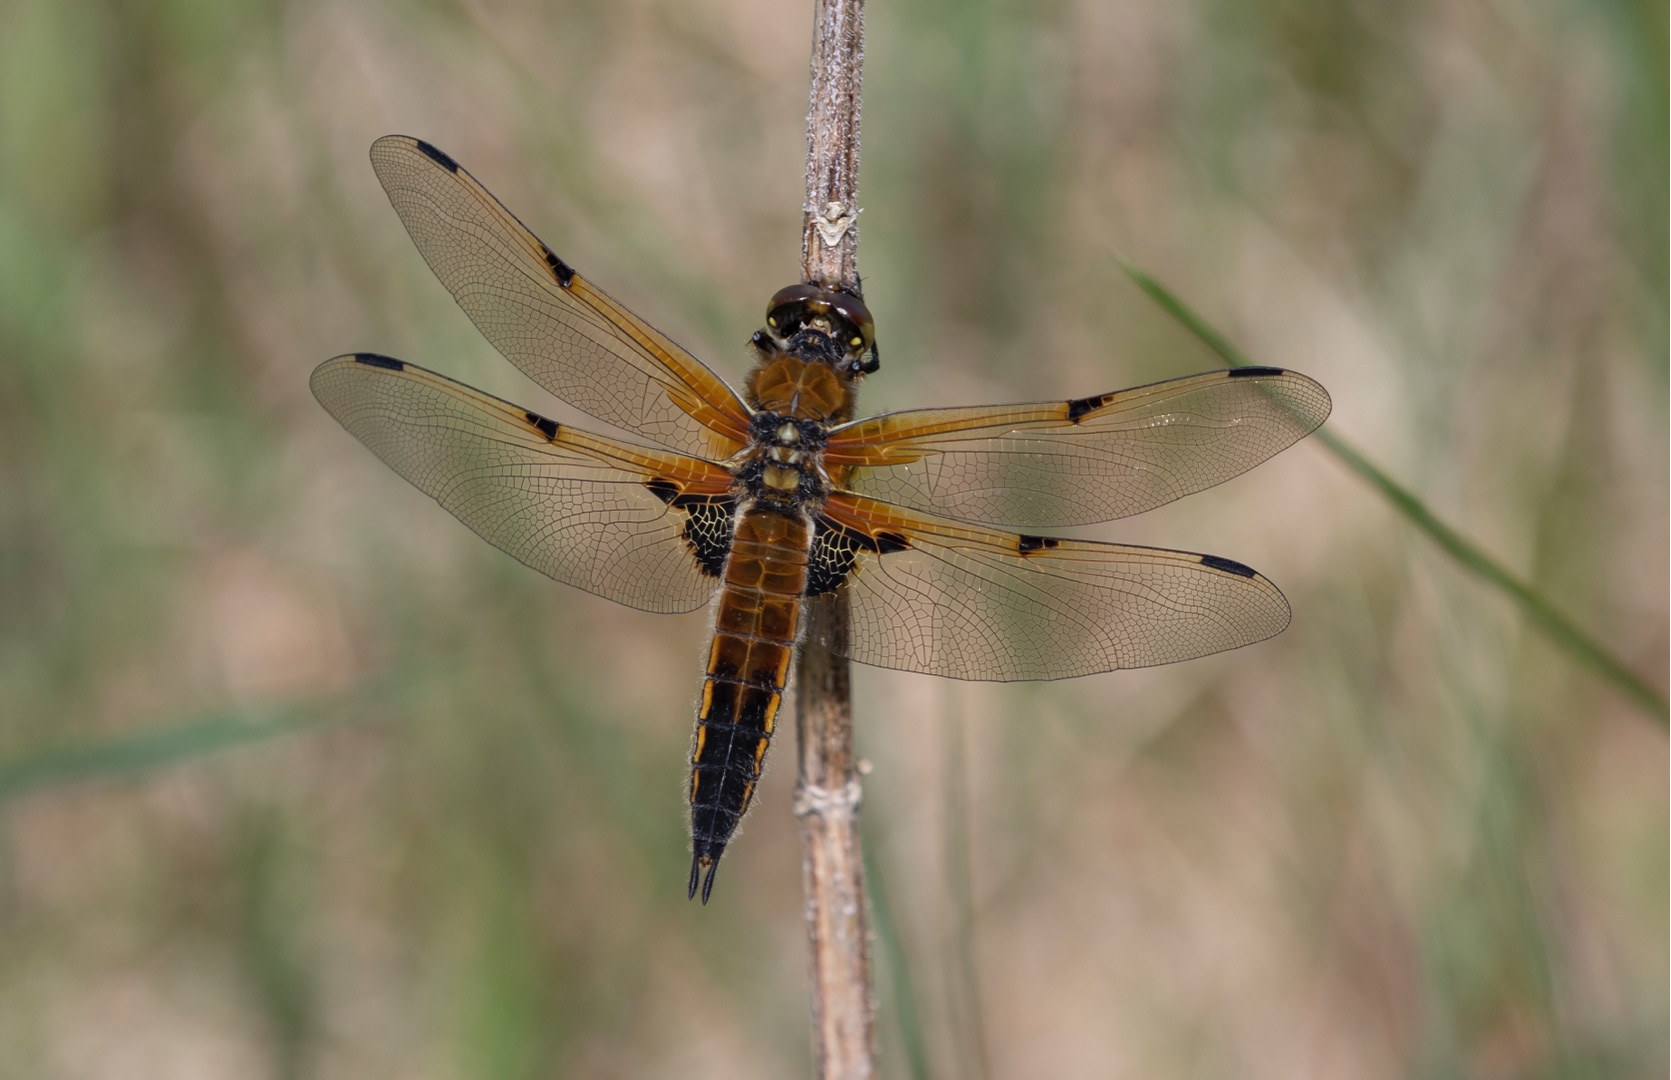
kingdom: Animalia
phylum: Arthropoda
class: Insecta
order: Odonata
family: Libellulidae
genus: Libellula
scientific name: Libellula quadrimaculata
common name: Fireplettet libel
